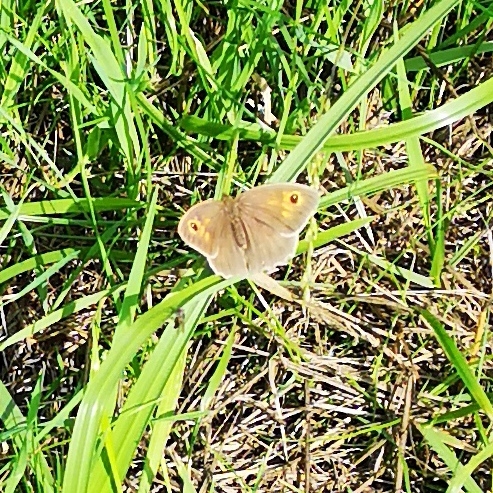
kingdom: Animalia
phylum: Arthropoda
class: Insecta
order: Lepidoptera
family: Nymphalidae
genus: Maniola
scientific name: Maniola jurtina
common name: Græsrandøje
